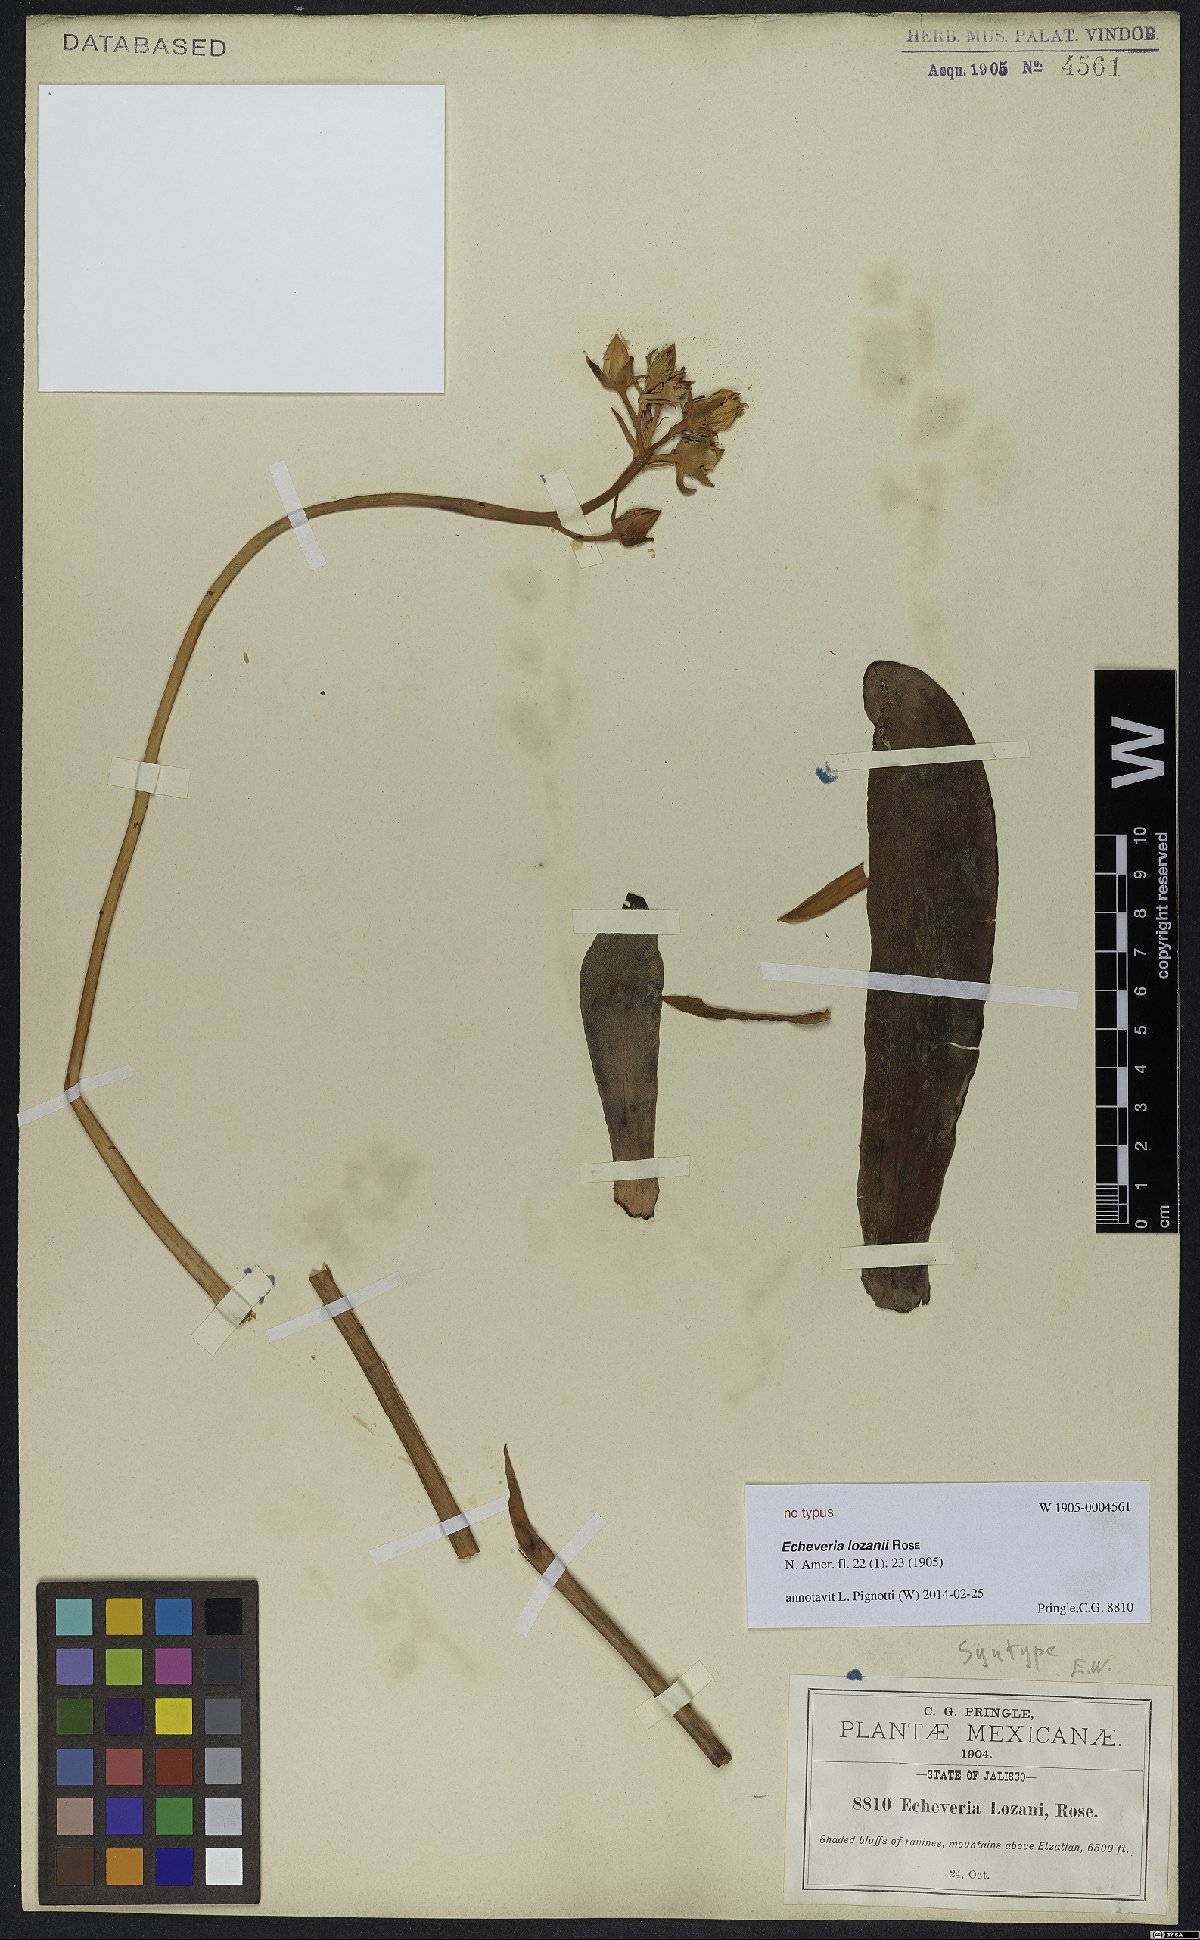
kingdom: Plantae
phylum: Tracheophyta
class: Magnoliopsida
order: Saxifragales
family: Crassulaceae
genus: Echeveria
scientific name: Echeveria lozani
